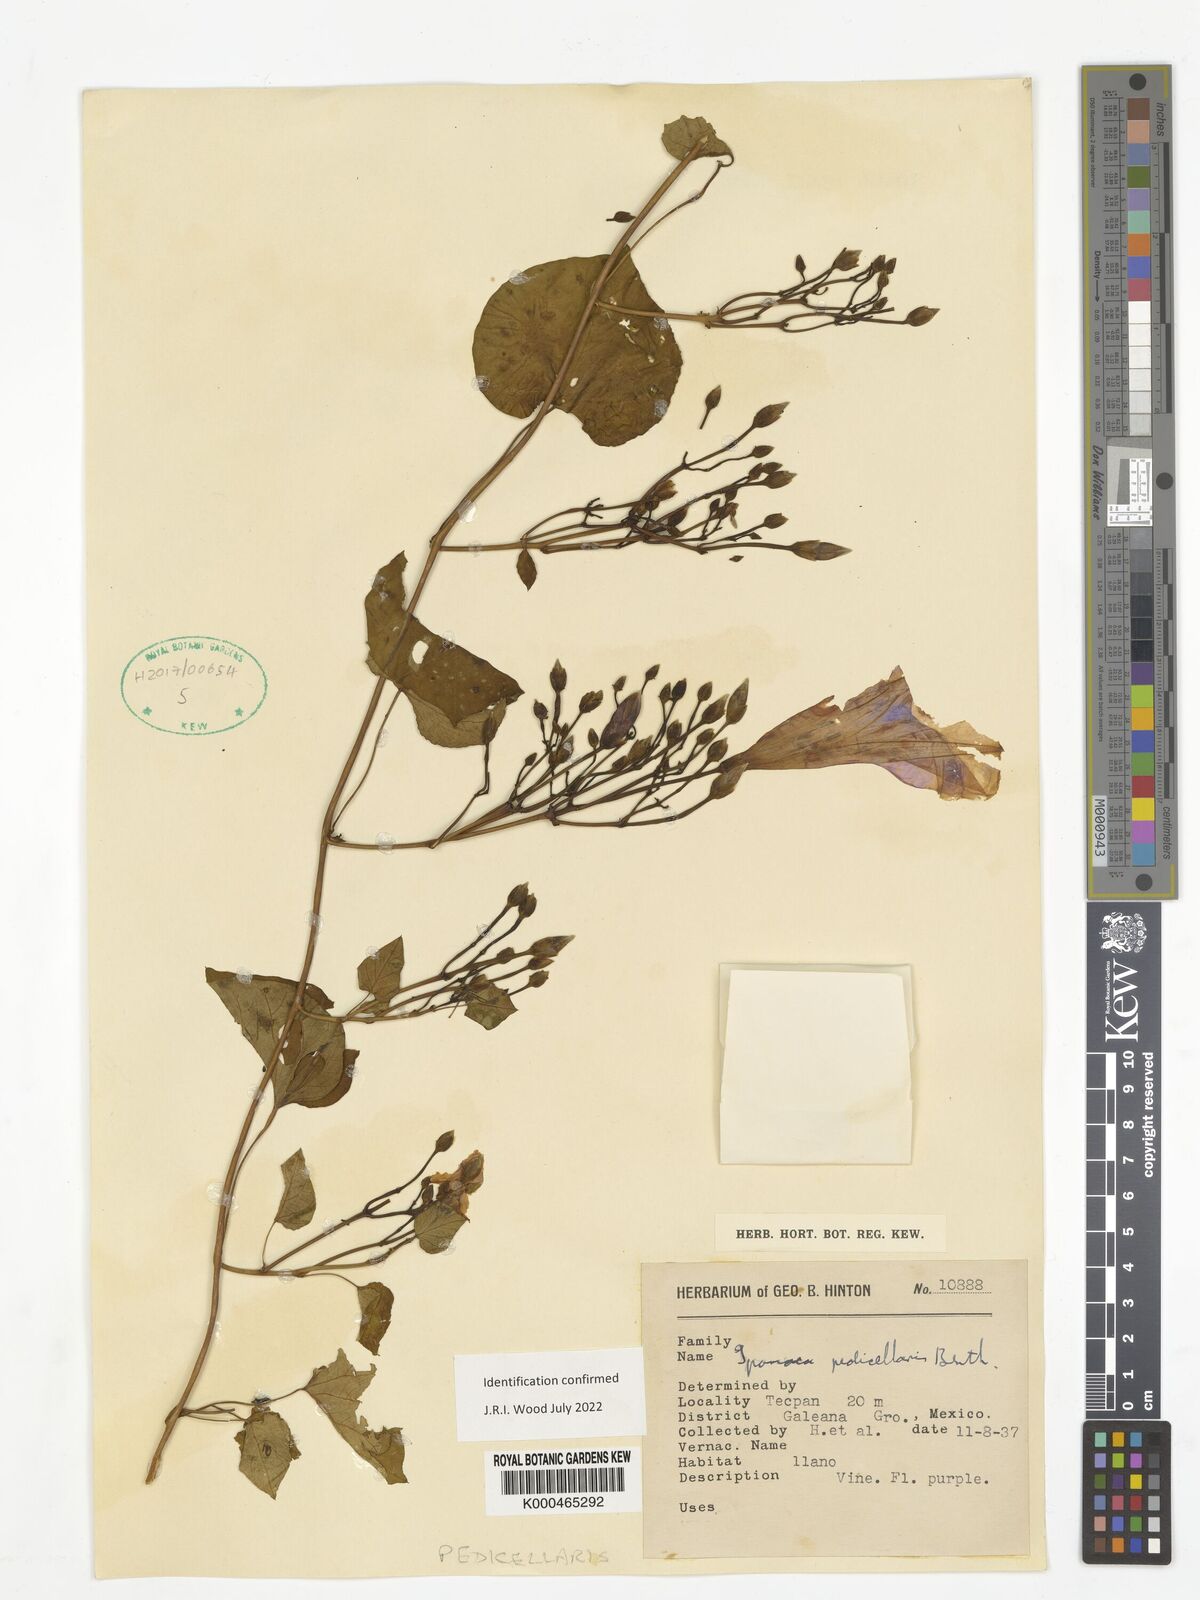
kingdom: Plantae
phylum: Tracheophyta
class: Magnoliopsida
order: Solanales
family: Convolvulaceae
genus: Ipomoea
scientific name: Ipomoea pedicellaris
